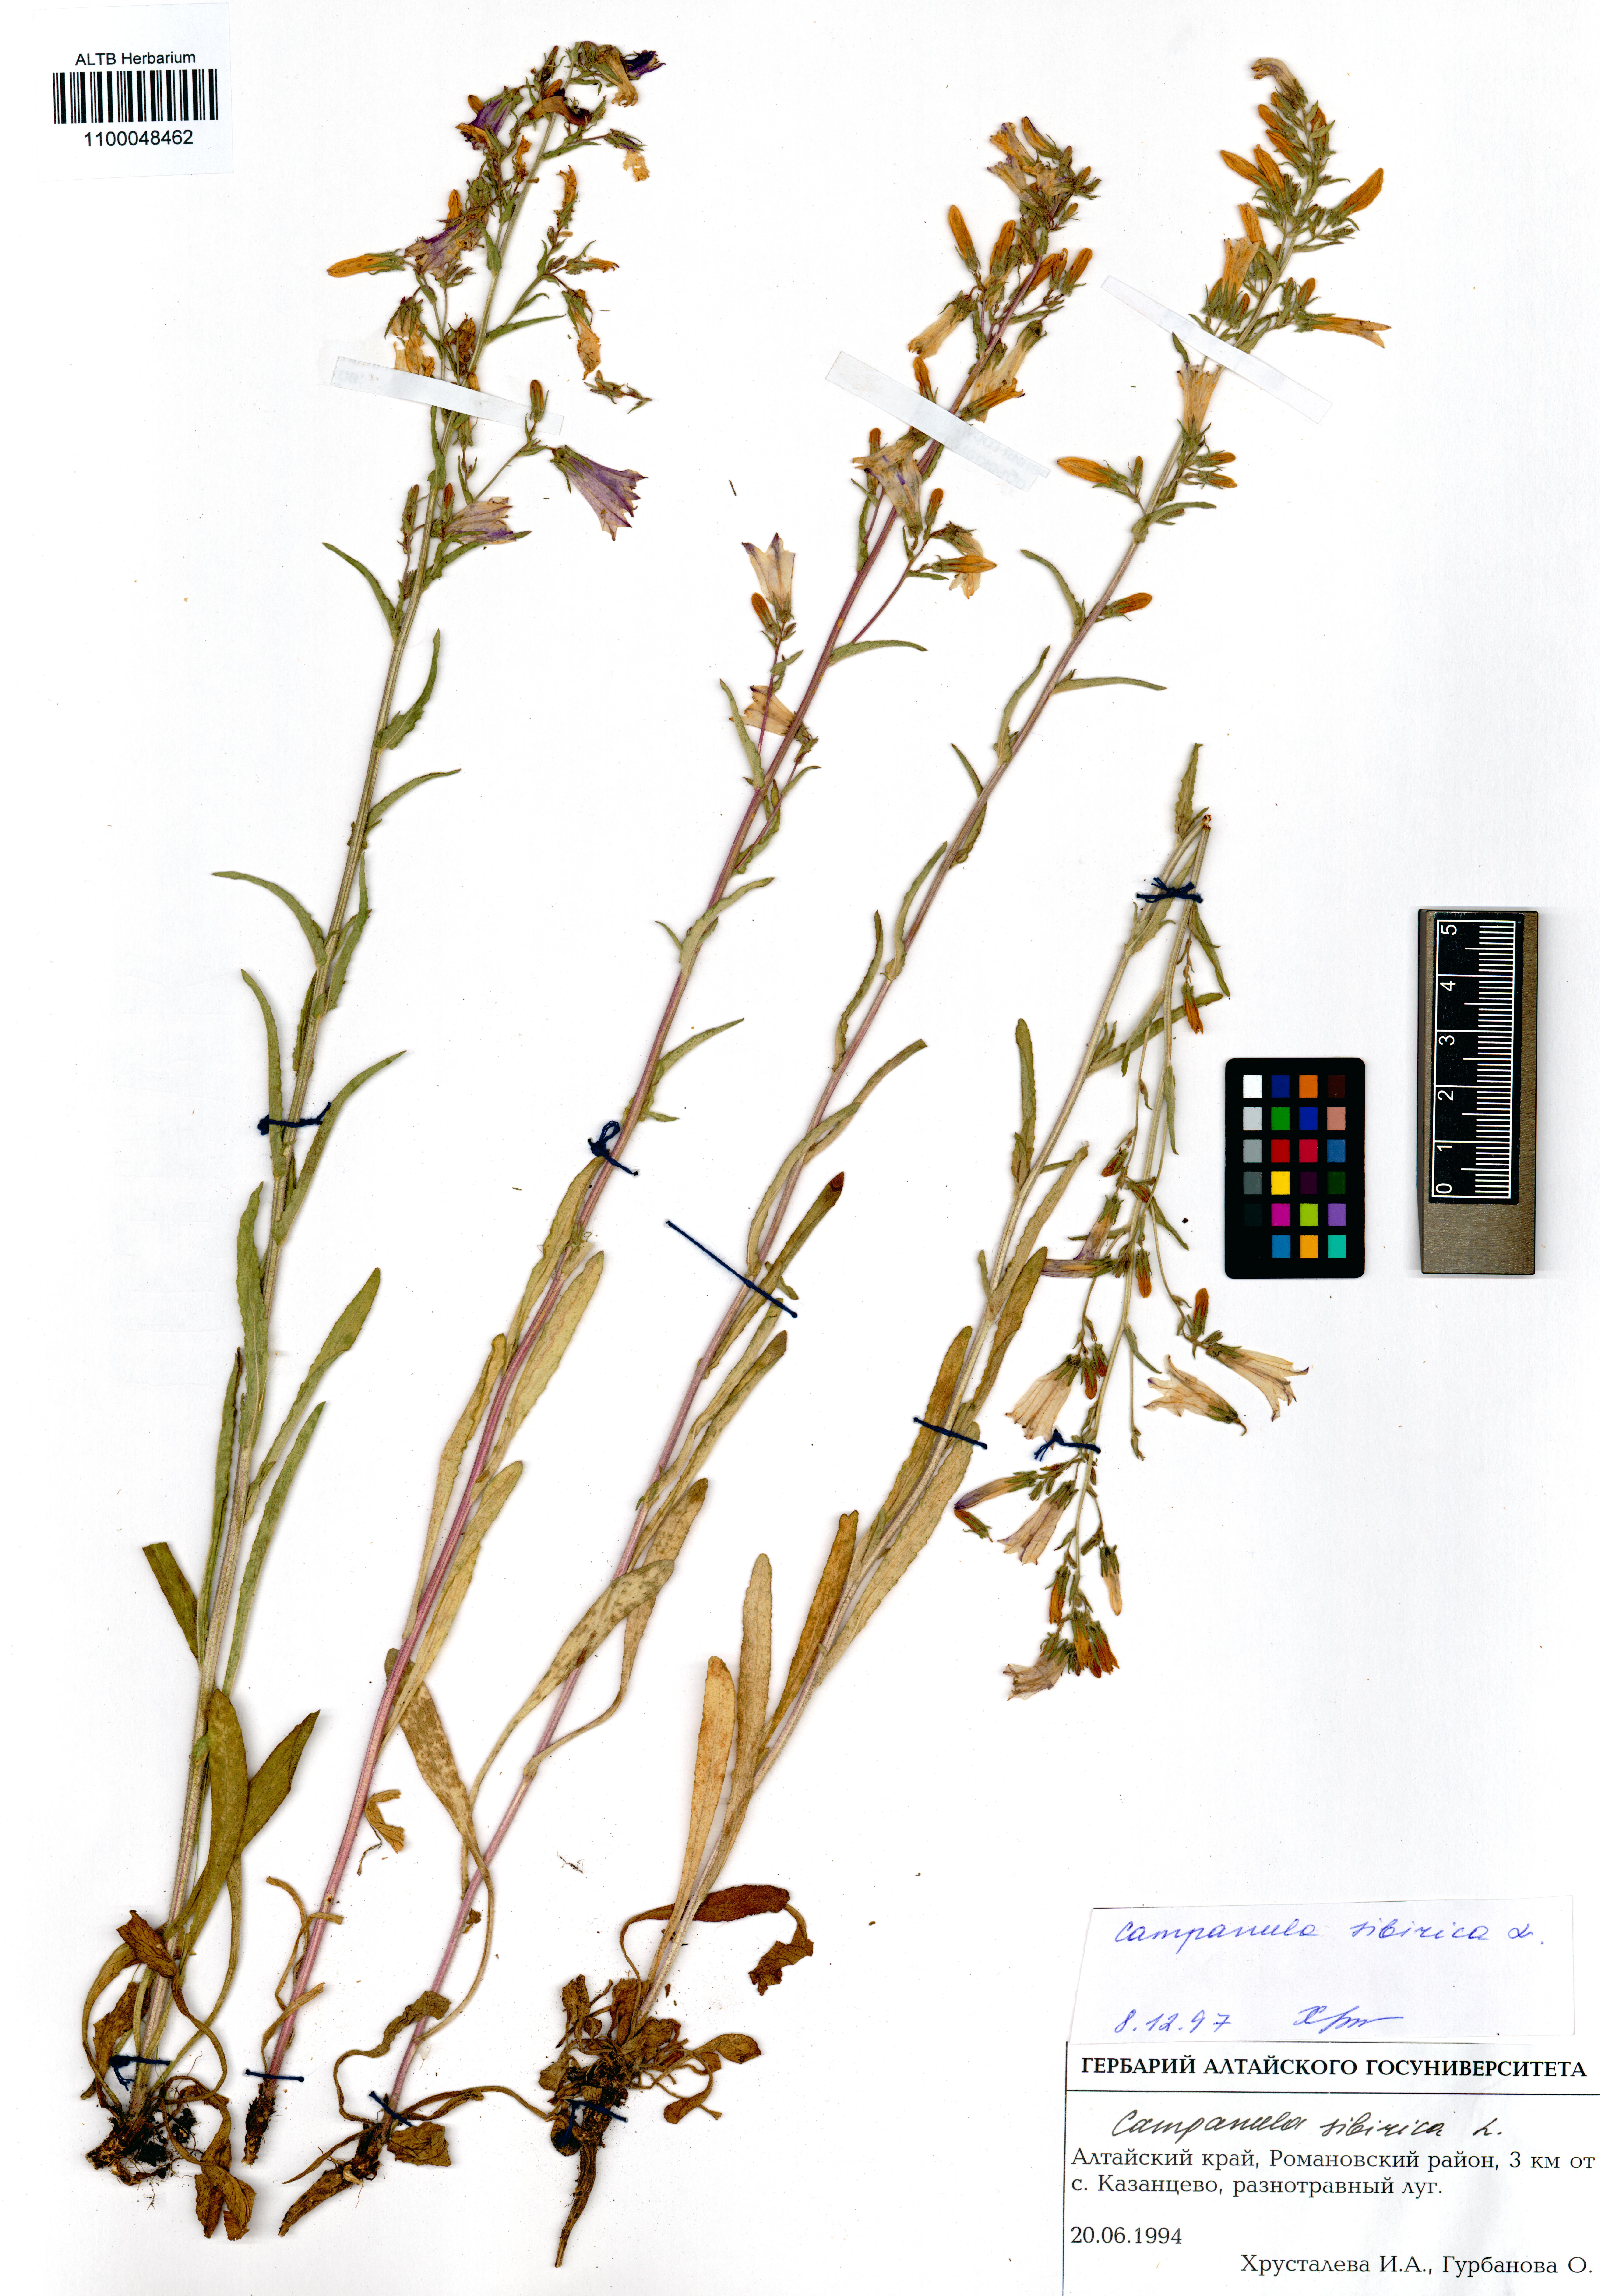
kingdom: Plantae
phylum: Tracheophyta
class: Magnoliopsida
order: Asterales
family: Campanulaceae
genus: Campanula
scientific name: Campanula sibirica
